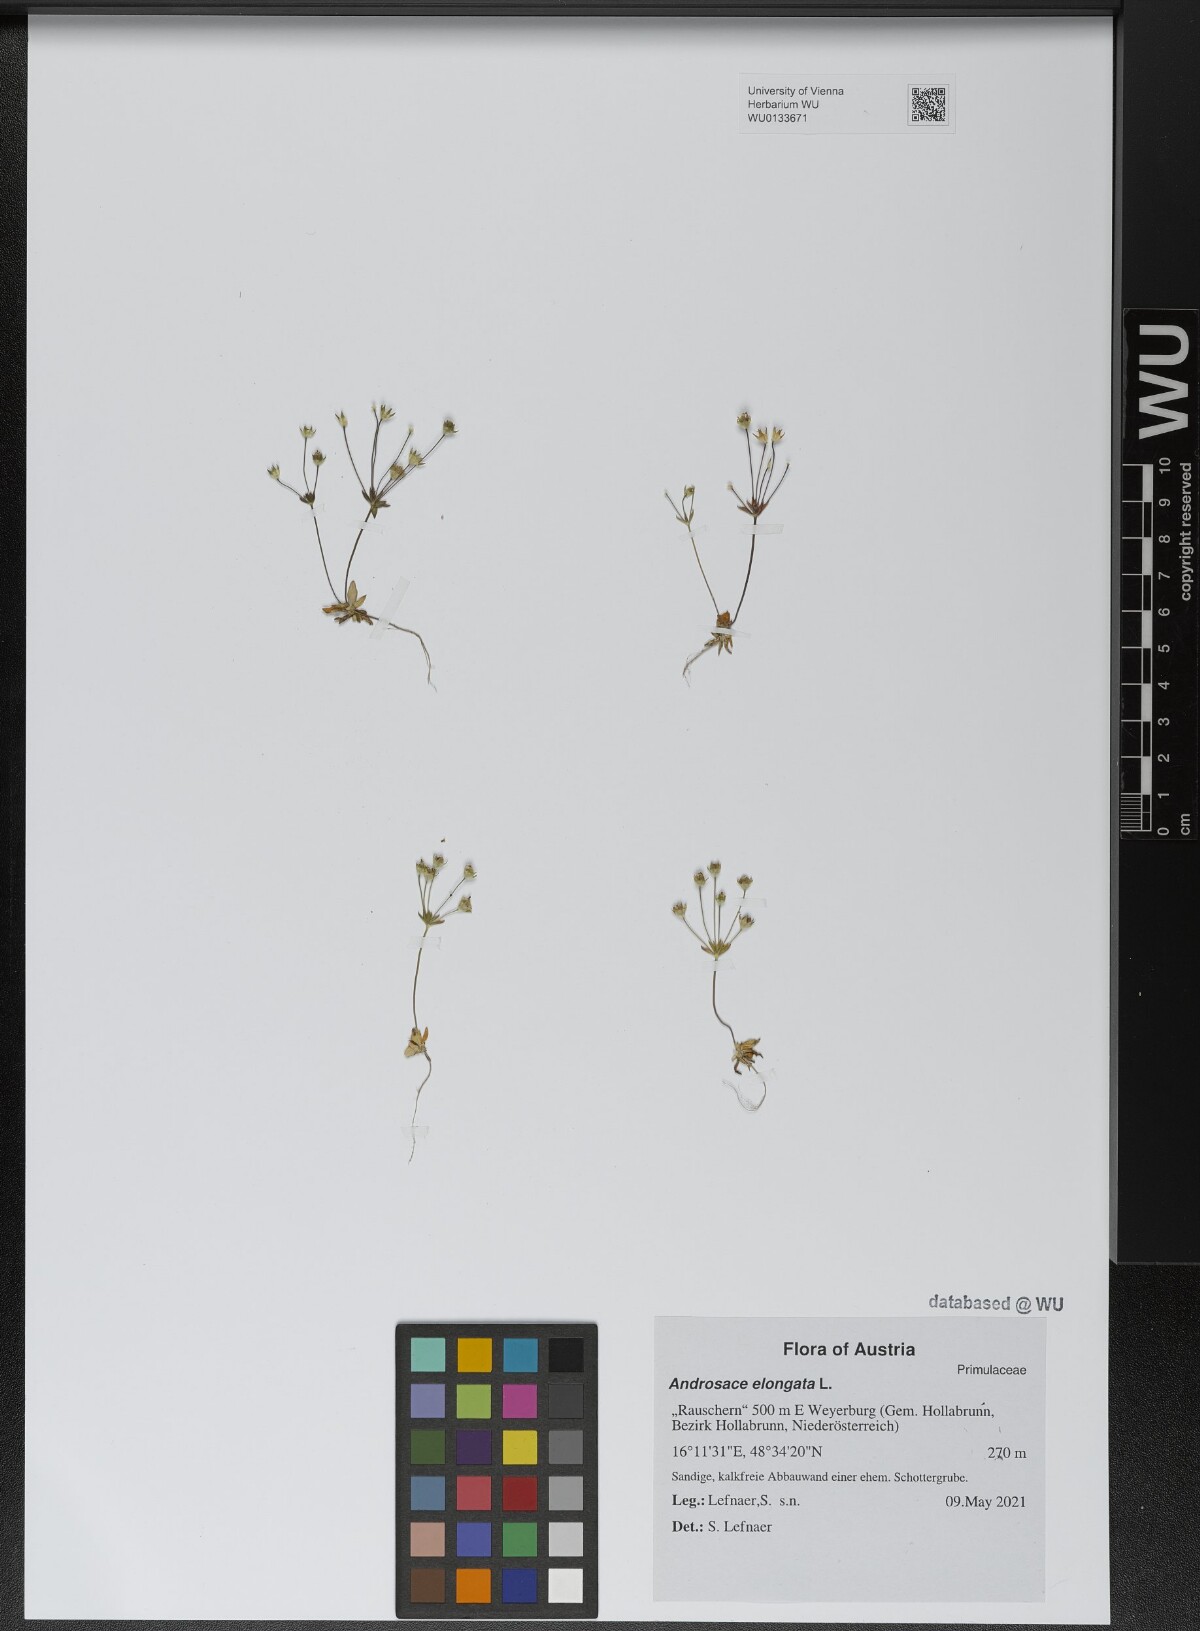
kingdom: Plantae
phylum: Tracheophyta
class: Magnoliopsida
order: Ericales
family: Primulaceae
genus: Androsace
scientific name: Androsace elongata
